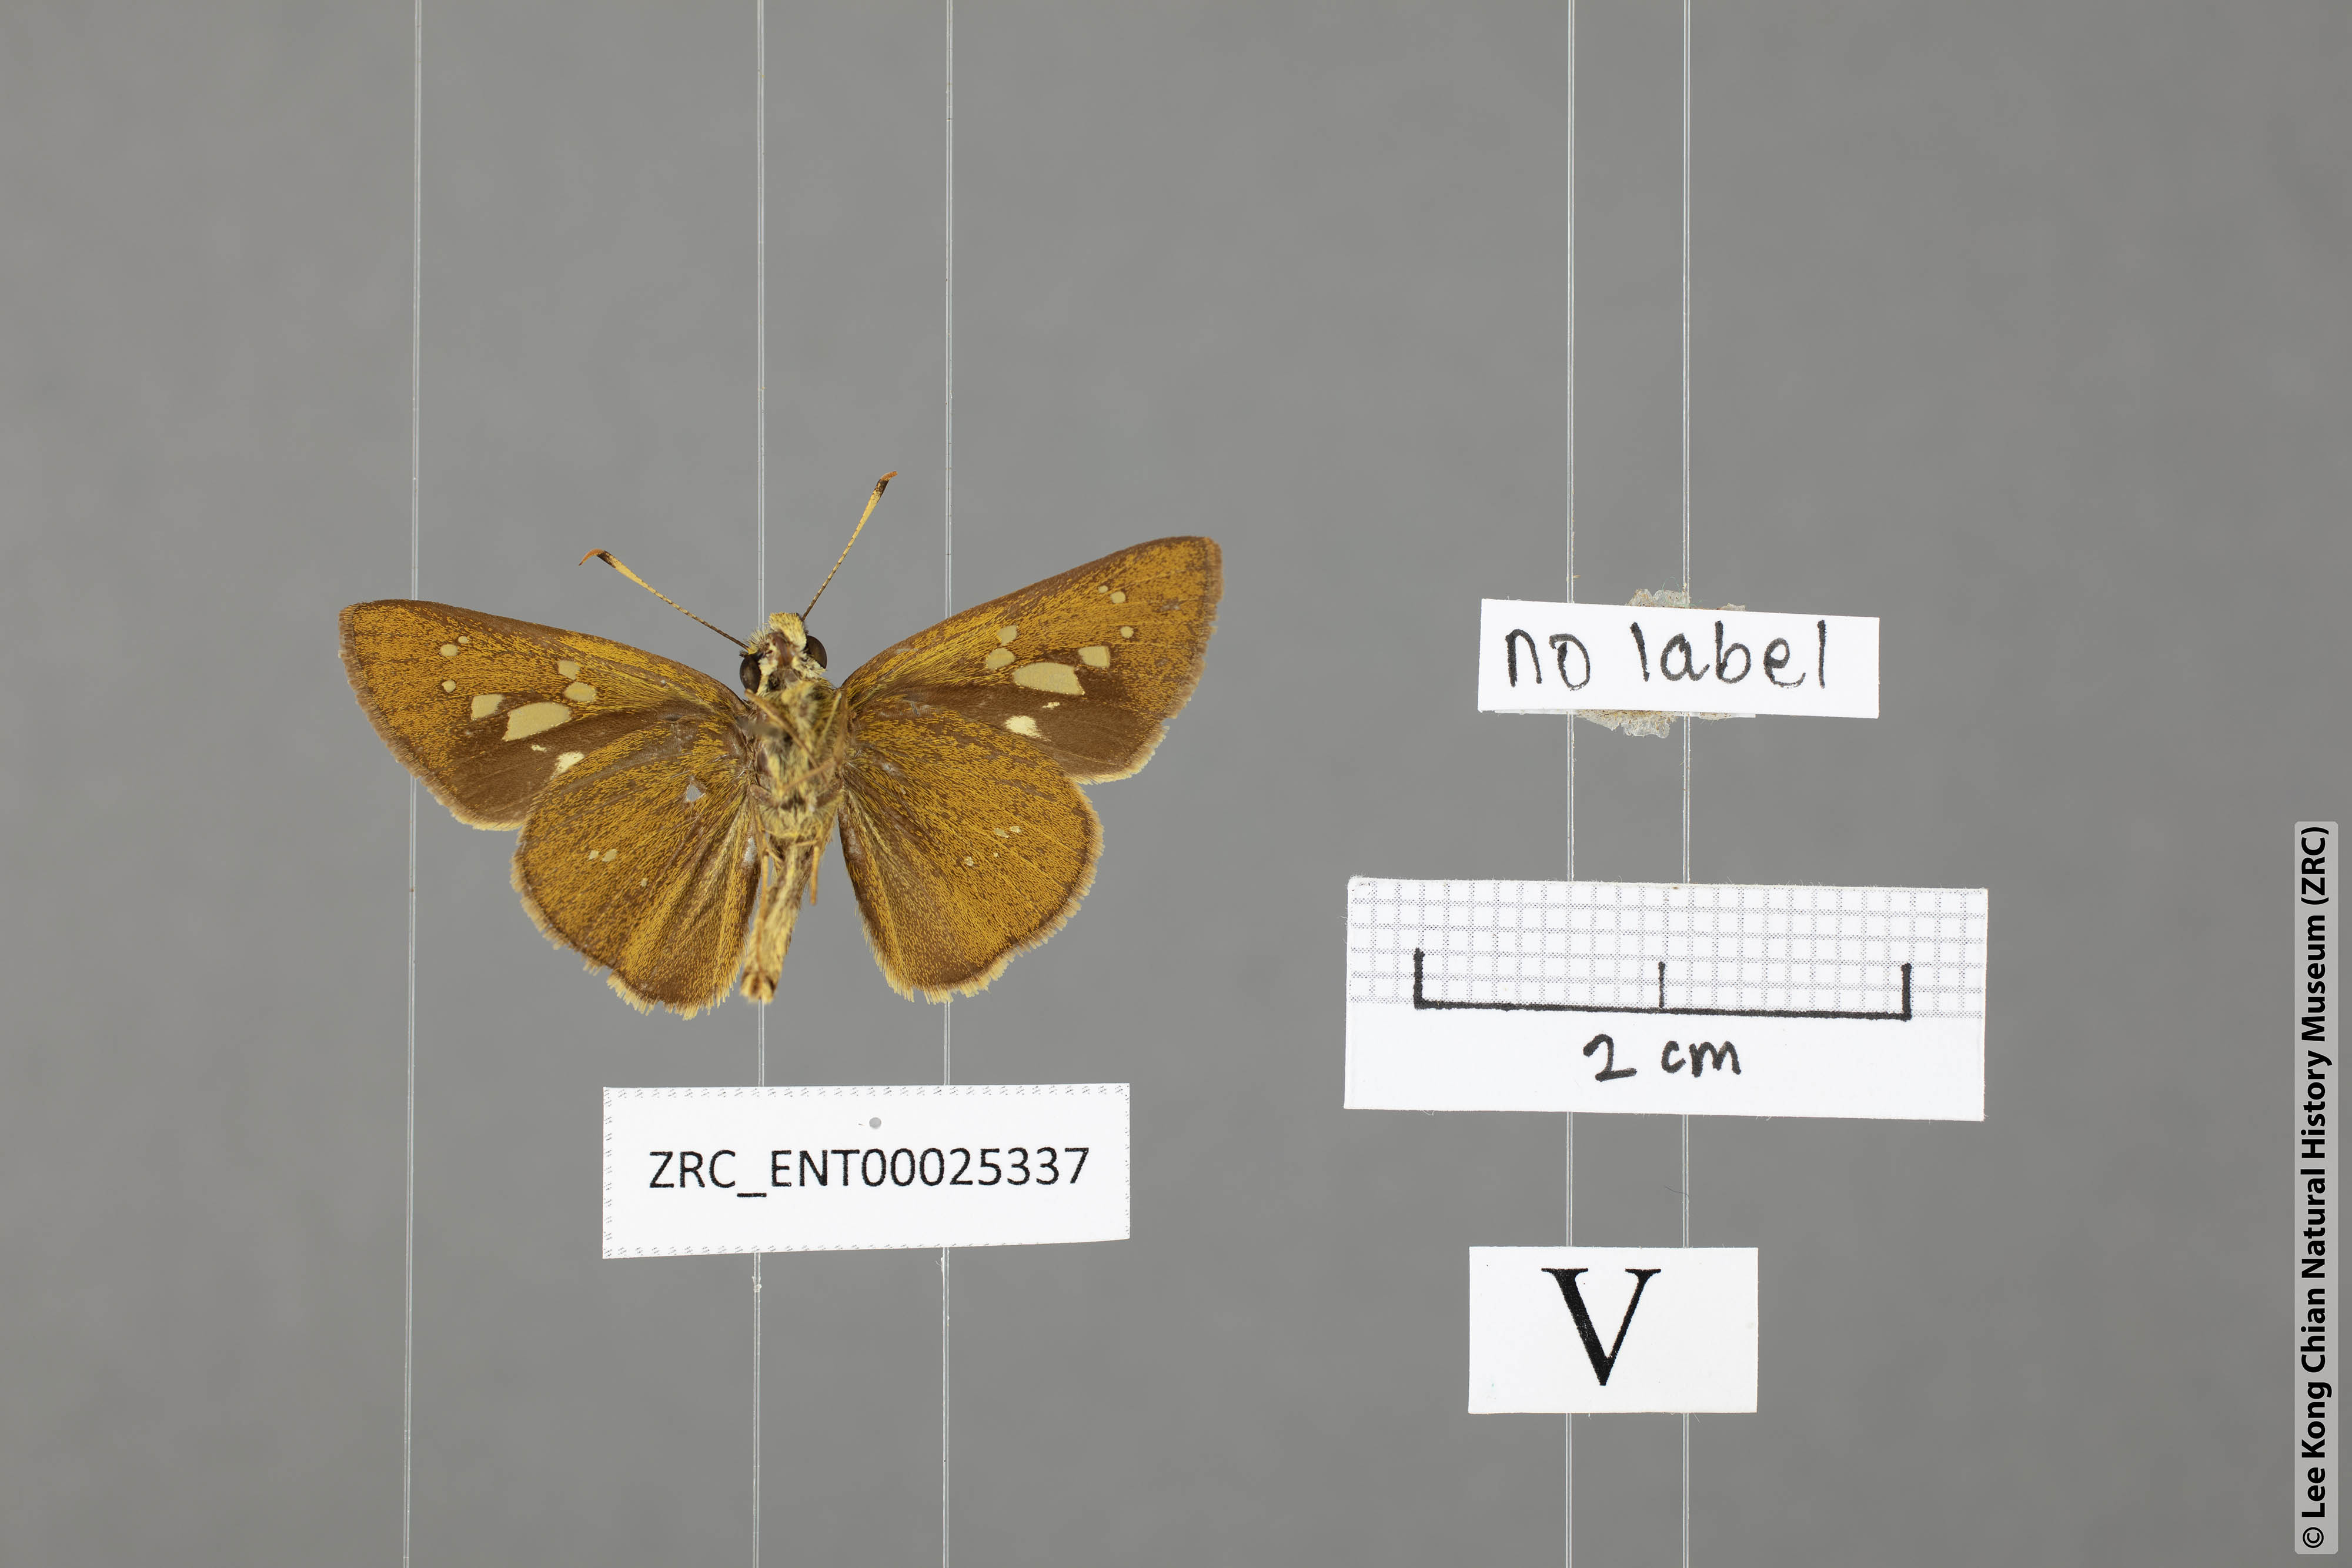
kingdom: Animalia
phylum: Arthropoda
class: Insecta
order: Lepidoptera
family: Hesperiidae
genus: Polytremis
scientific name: Polytremis lubricans
